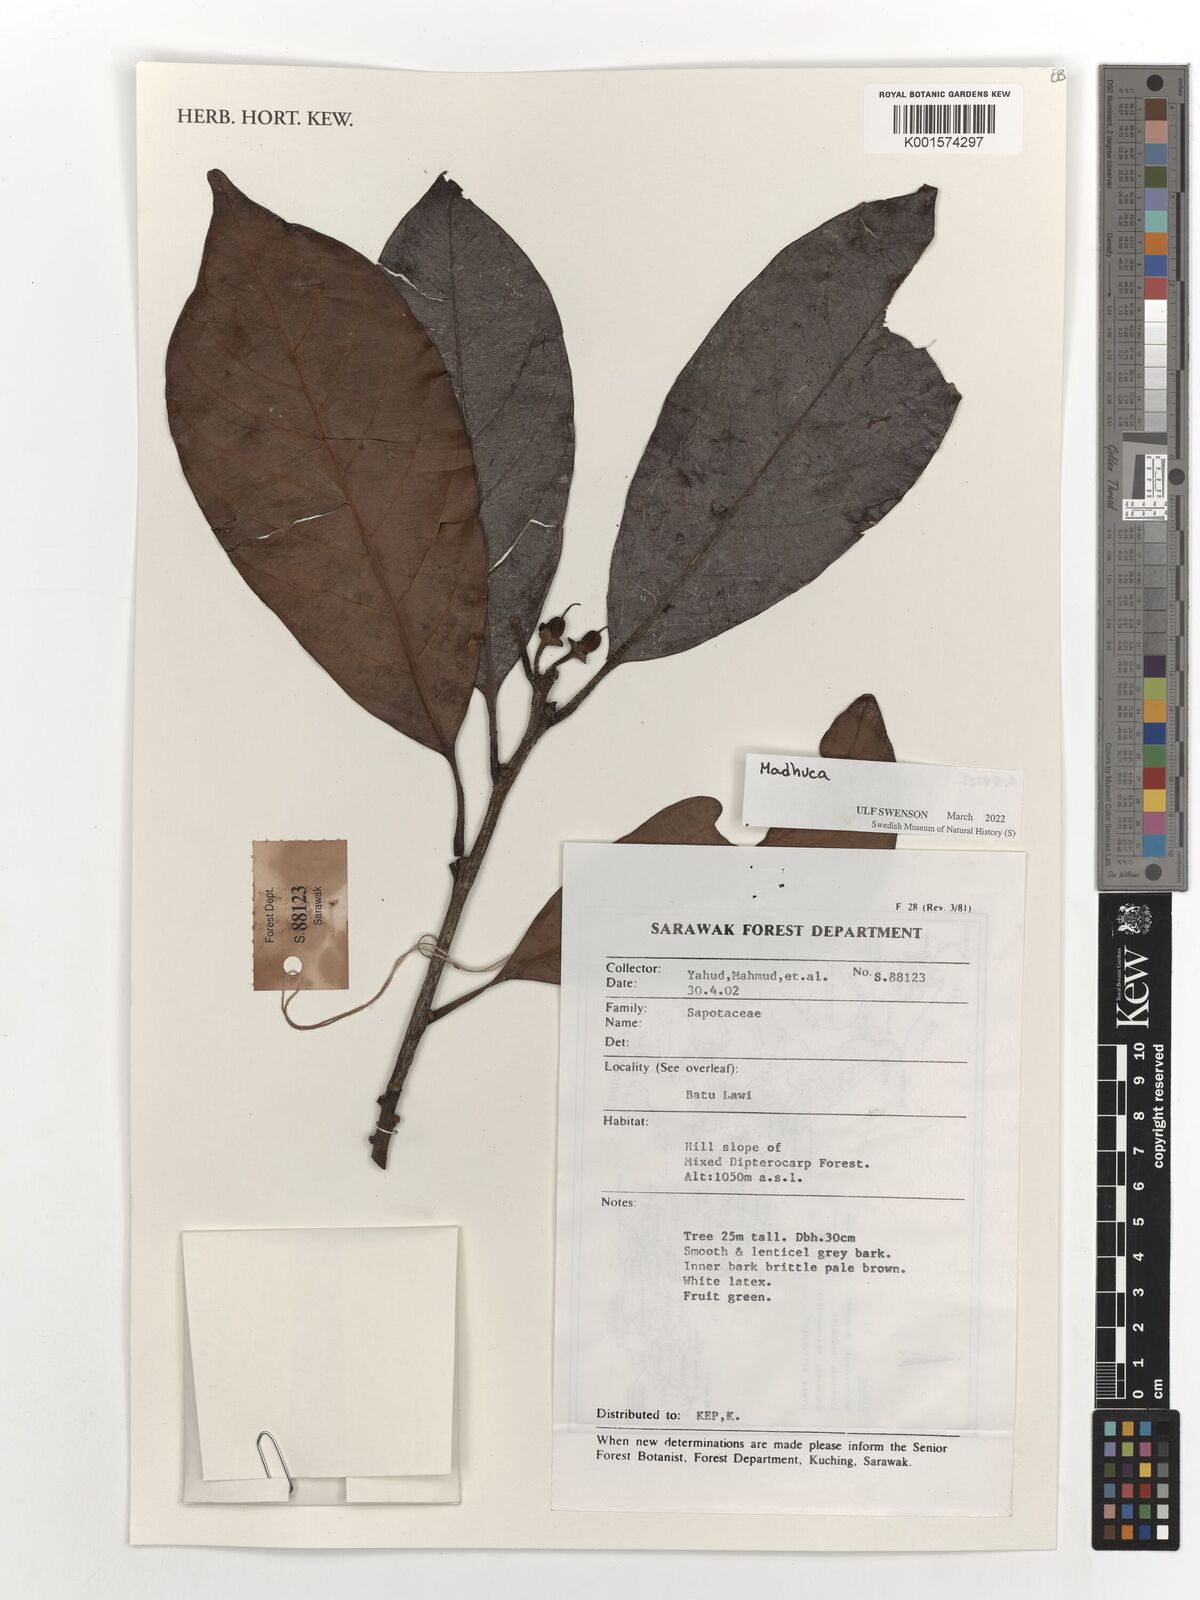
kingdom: Plantae
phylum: Tracheophyta
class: Magnoliopsida
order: Ericales
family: Sapotaceae
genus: Madhuca
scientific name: Madhuca
